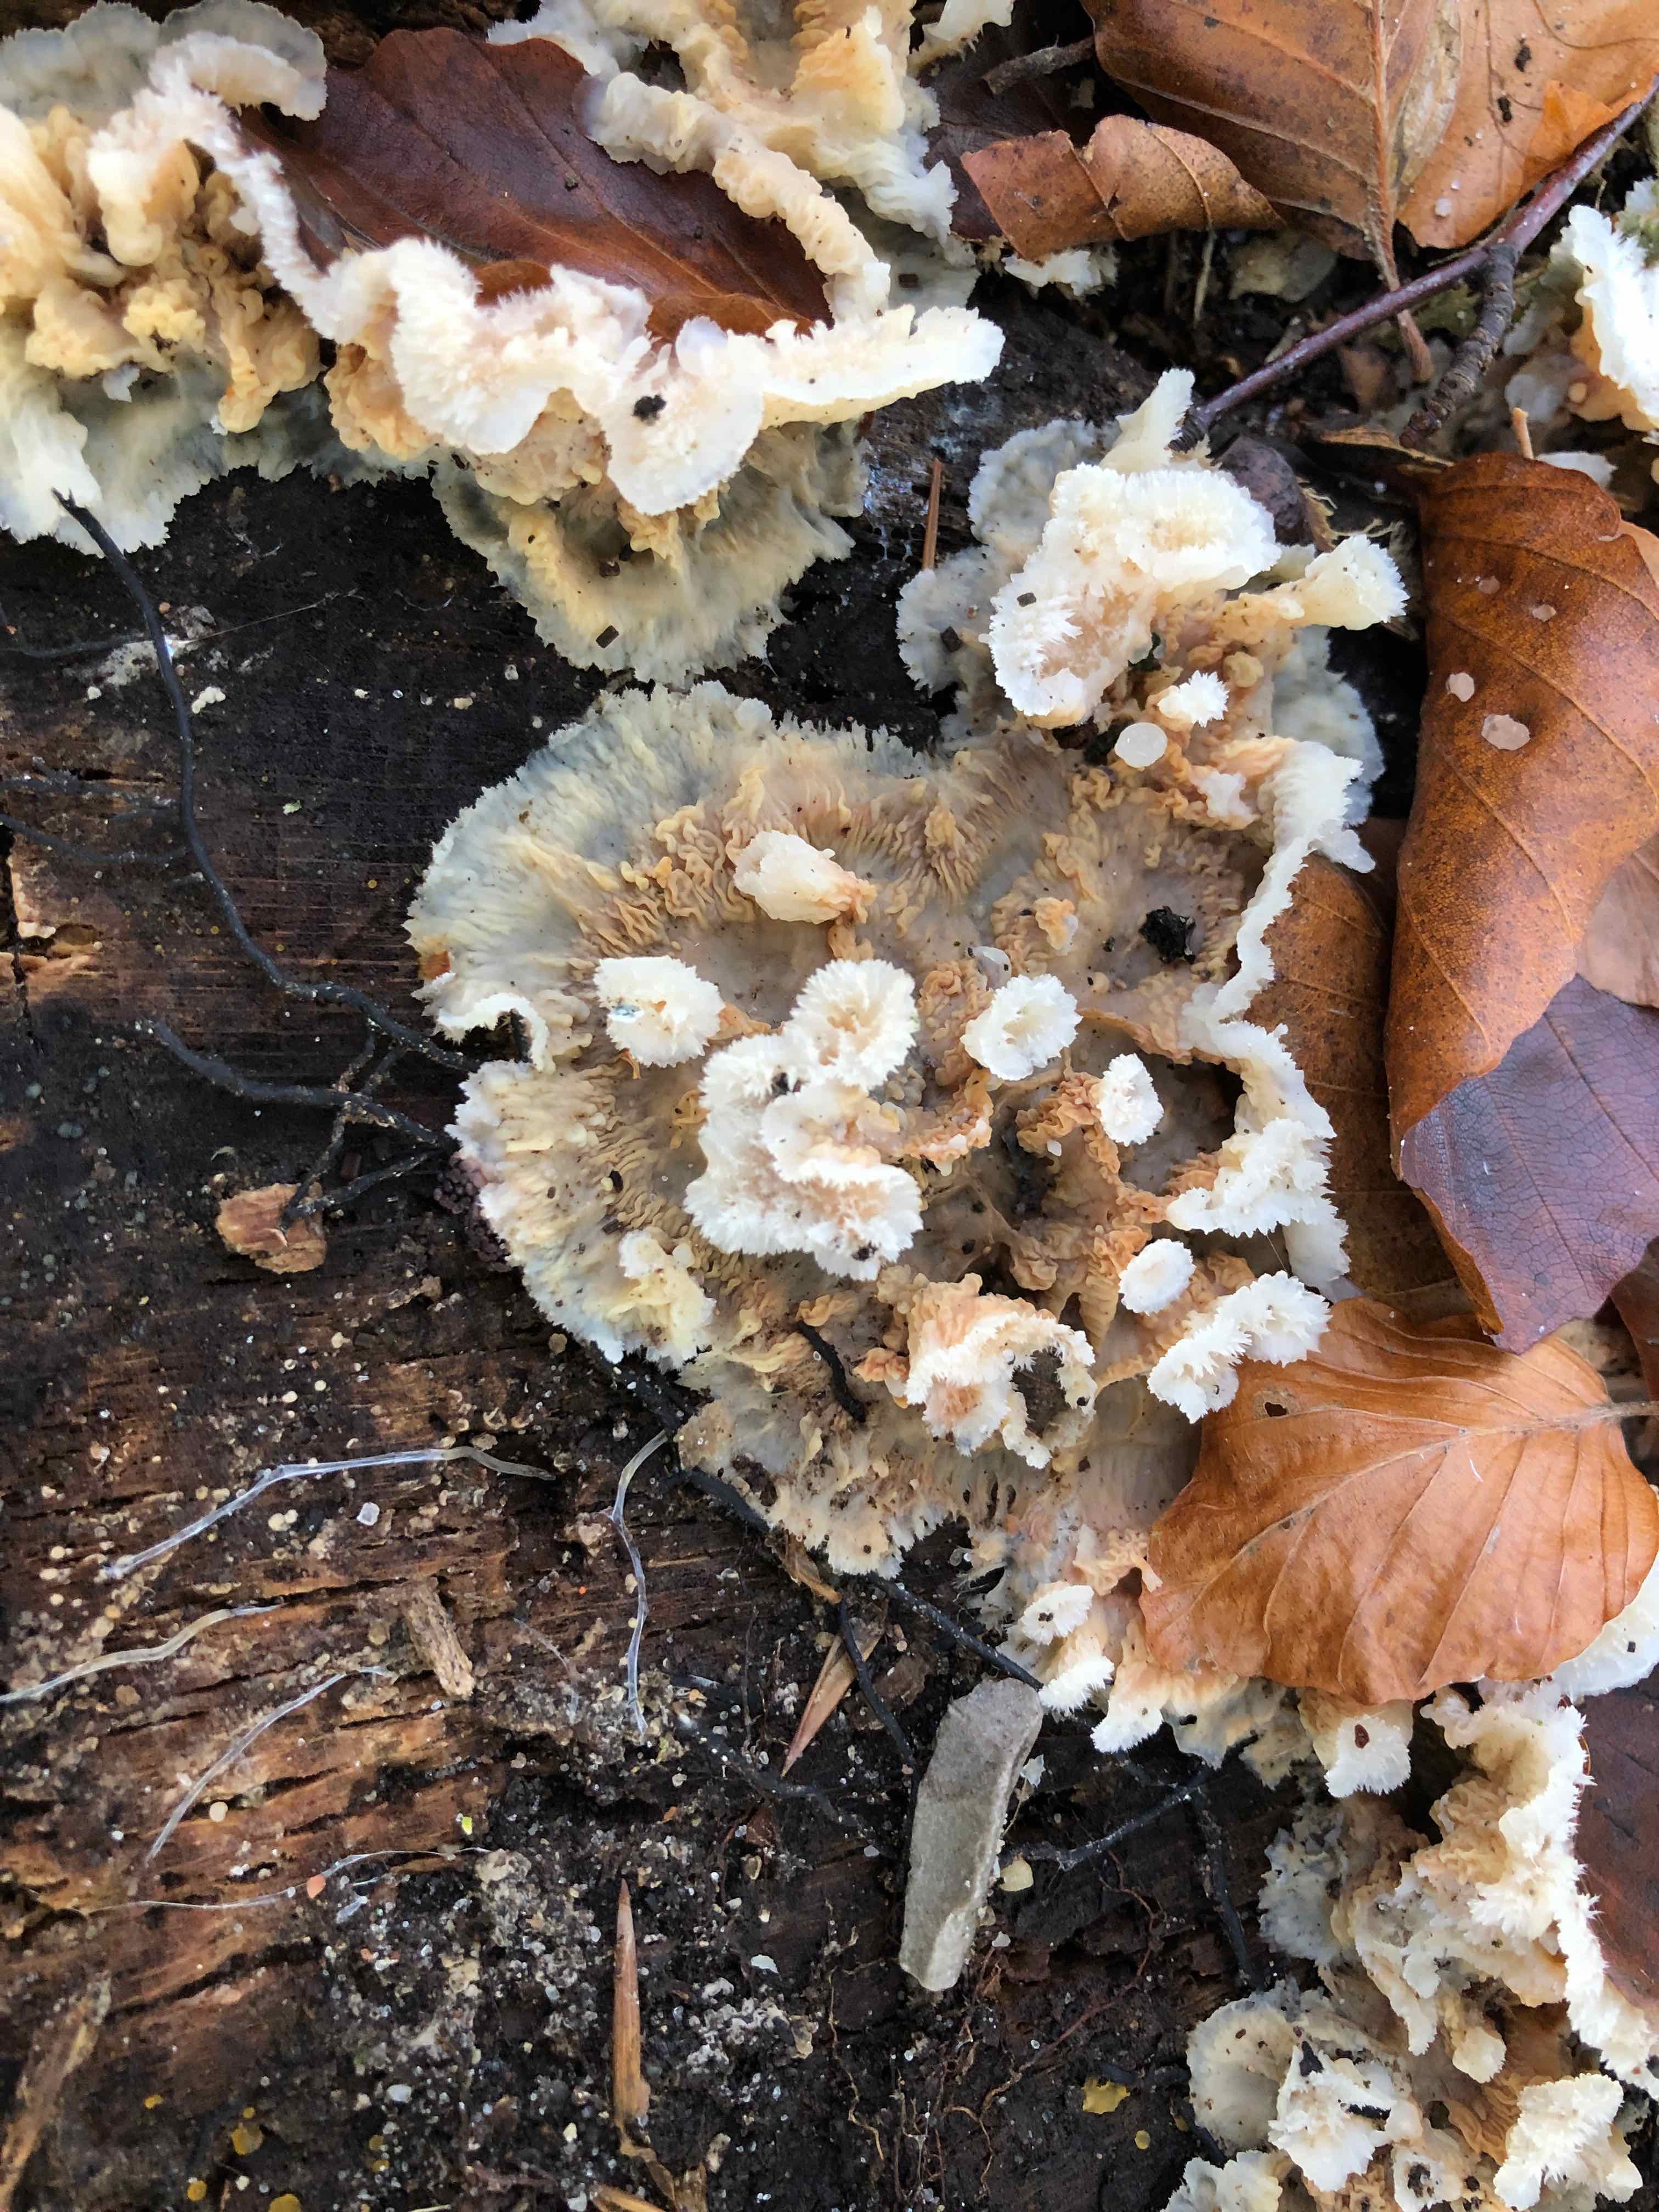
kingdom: Fungi
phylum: Basidiomycota
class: Agaricomycetes
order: Polyporales
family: Meruliaceae
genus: Phlebia
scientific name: Phlebia radiata
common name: stråle-åresvamp
